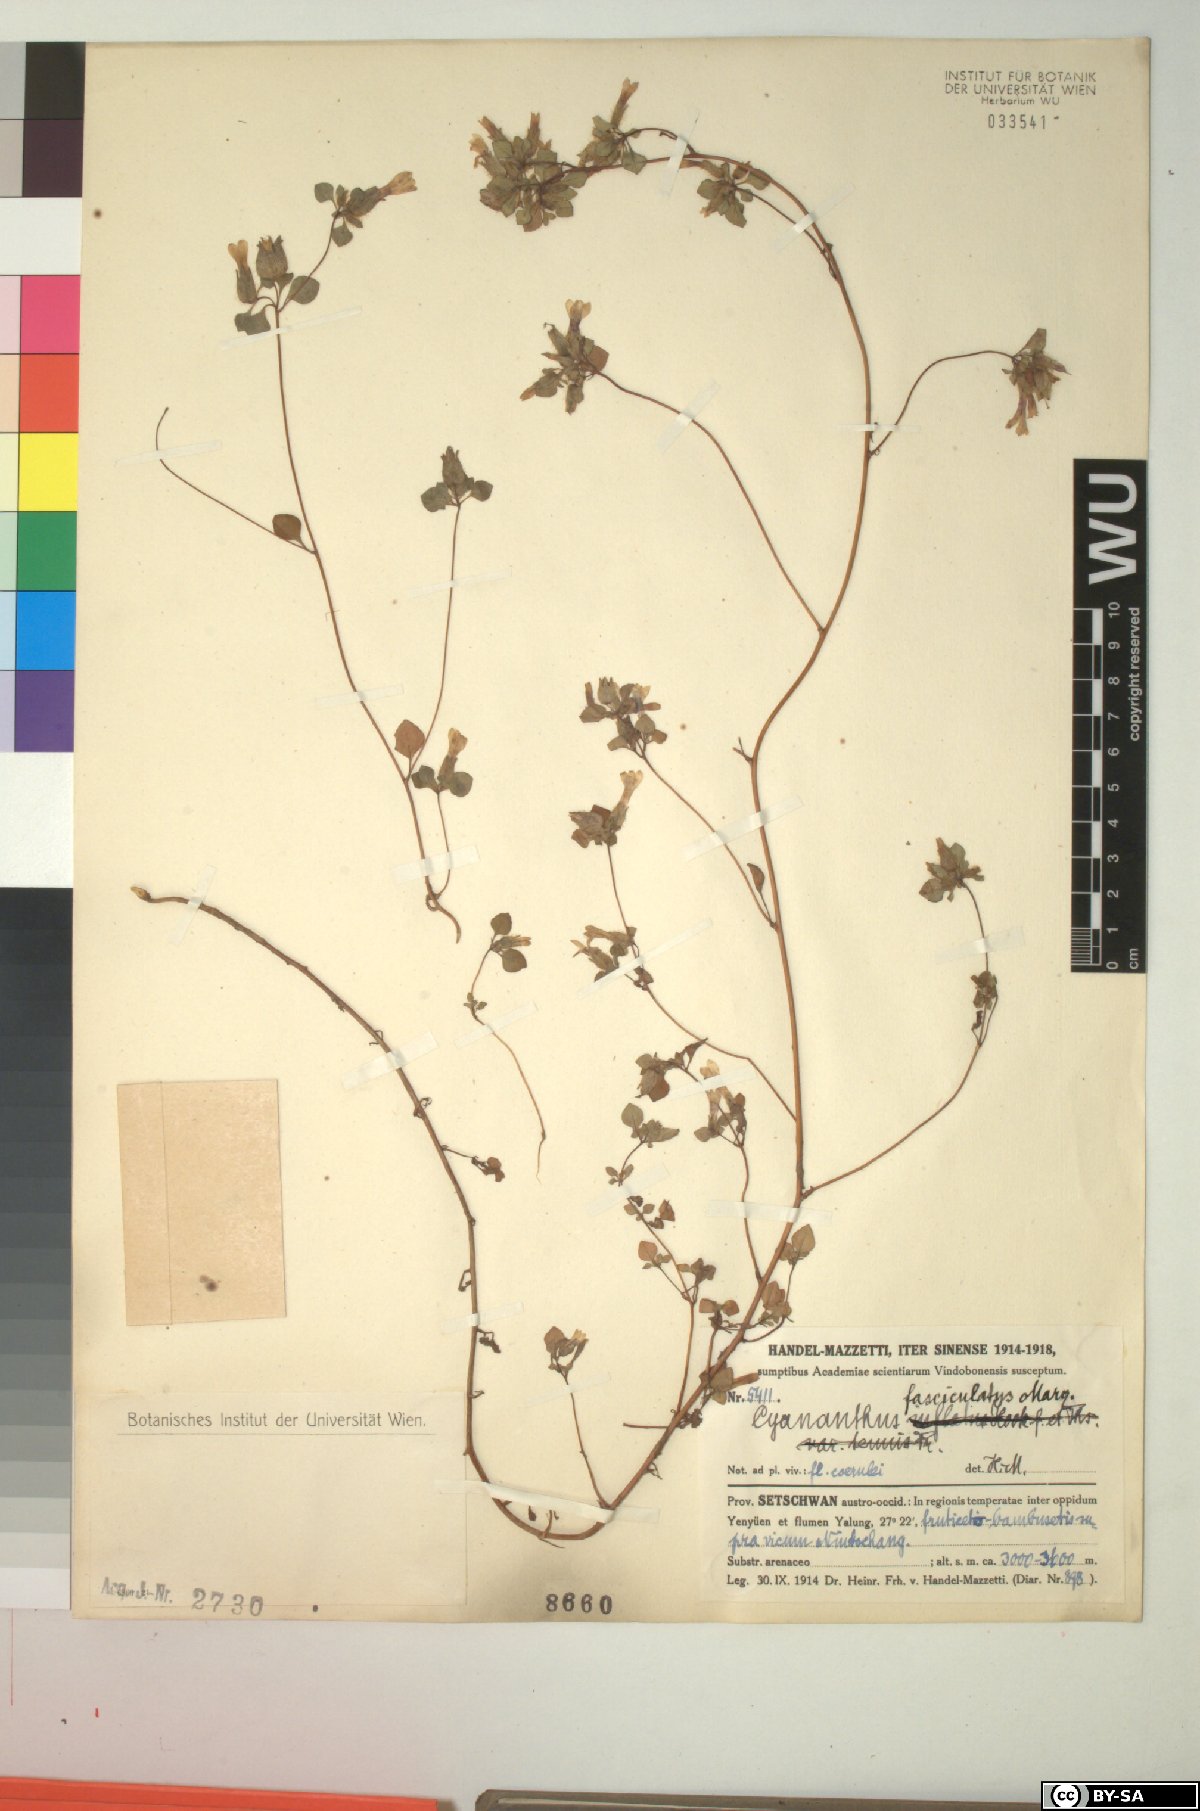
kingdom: Plantae
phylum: Tracheophyta
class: Magnoliopsida
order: Asterales
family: Campanulaceae
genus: Cyananthus
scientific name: Cyananthus fasciculatus
